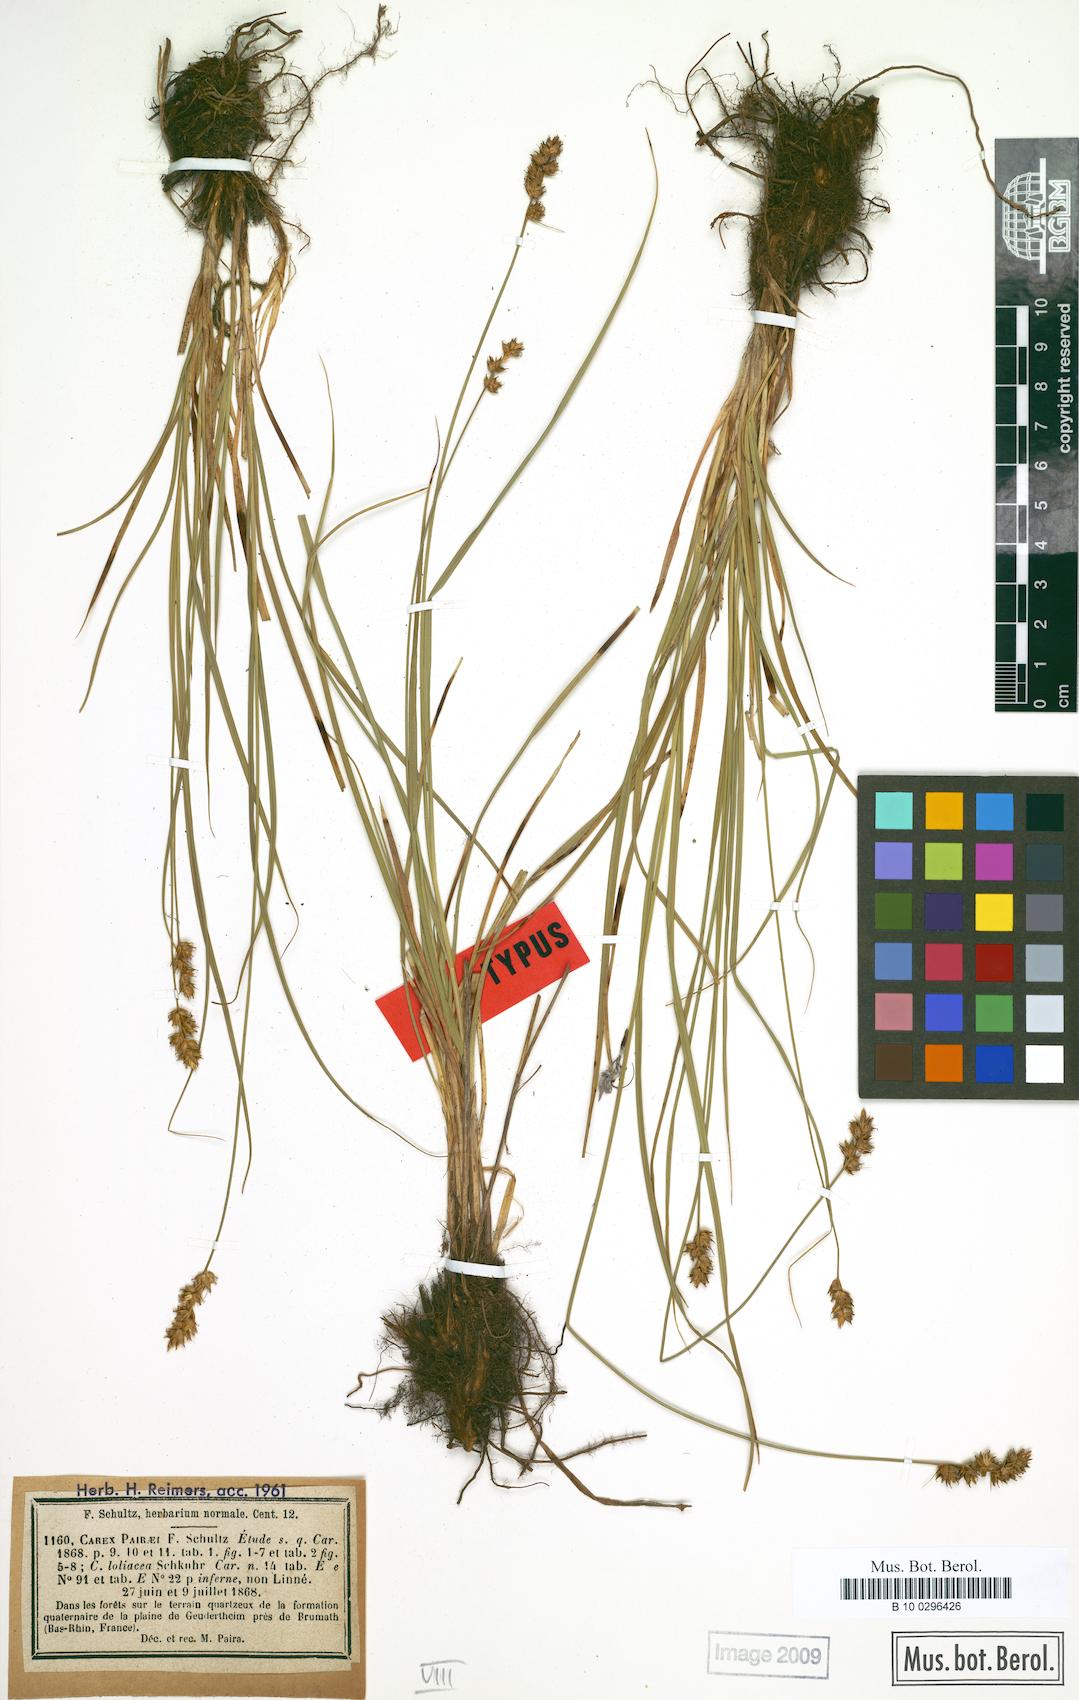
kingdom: Plantae
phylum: Tracheophyta
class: Liliopsida
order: Poales
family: Cyperaceae
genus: Carex
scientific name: Carex pairae
